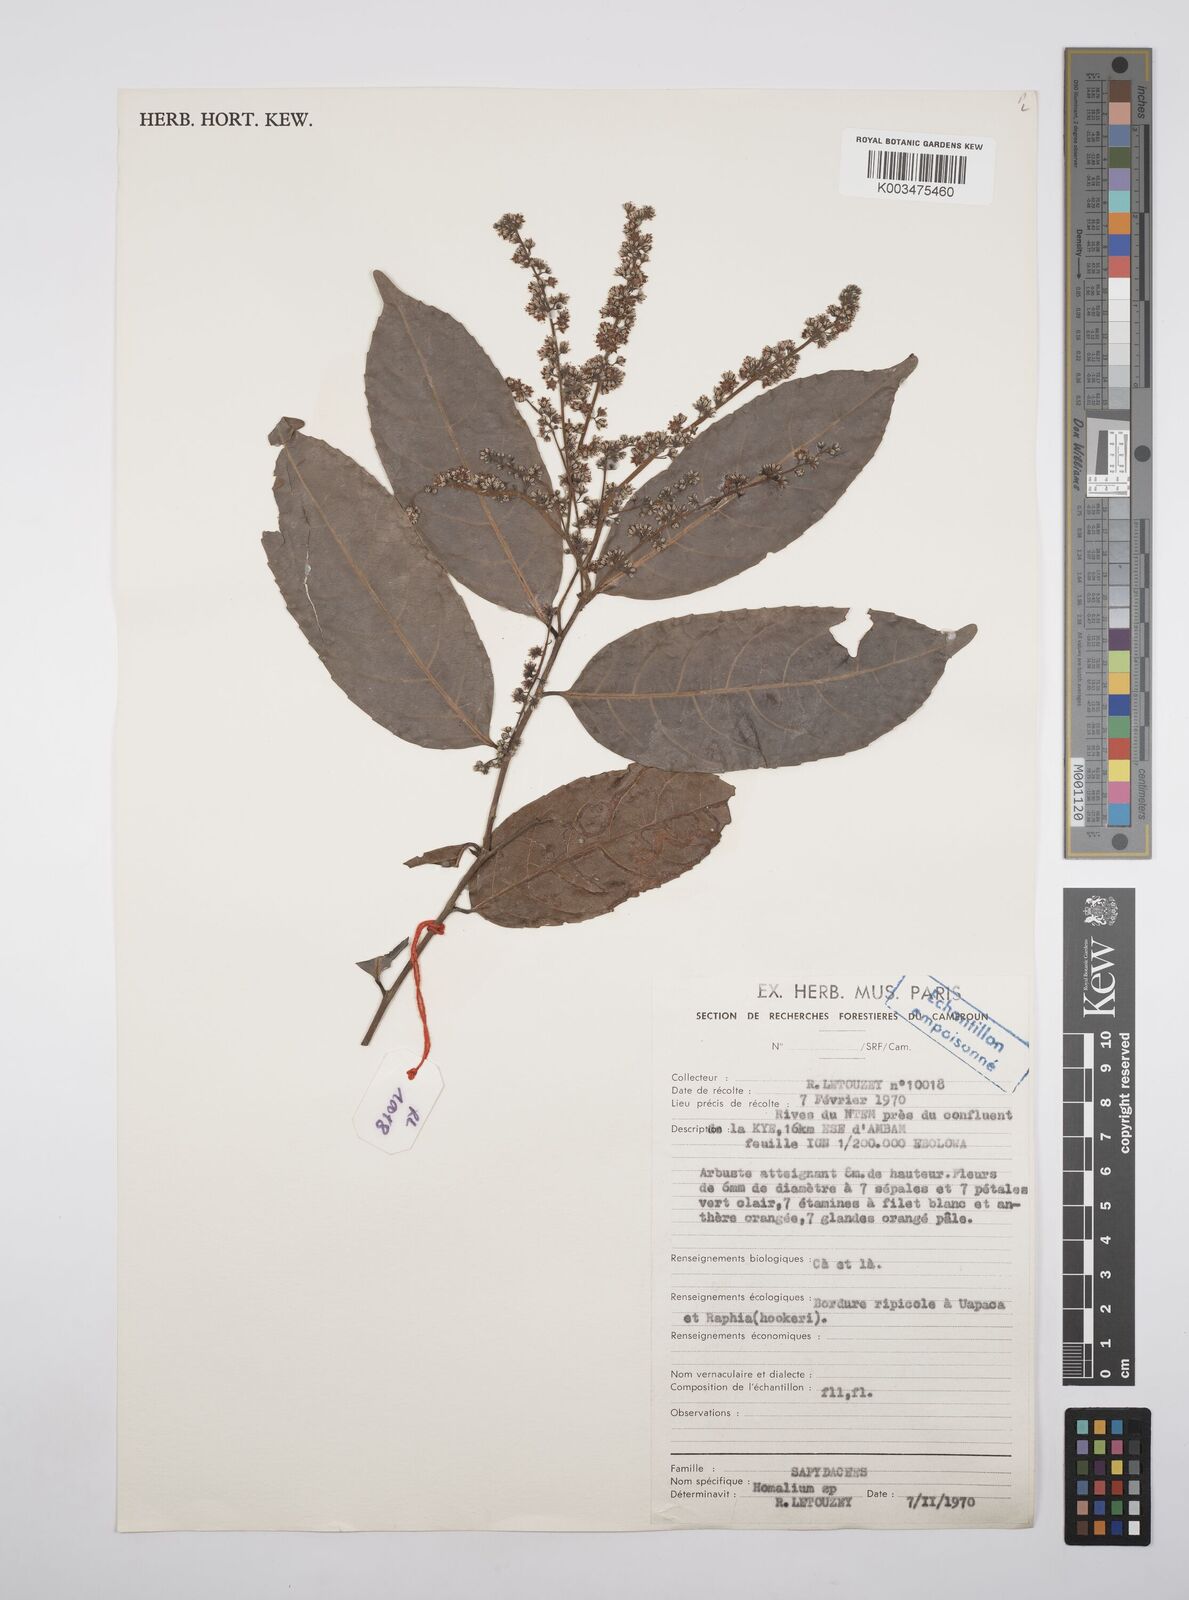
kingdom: Plantae
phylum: Tracheophyta
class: Magnoliopsida
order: Malpighiales
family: Salicaceae
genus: Homalium
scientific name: Homalium
